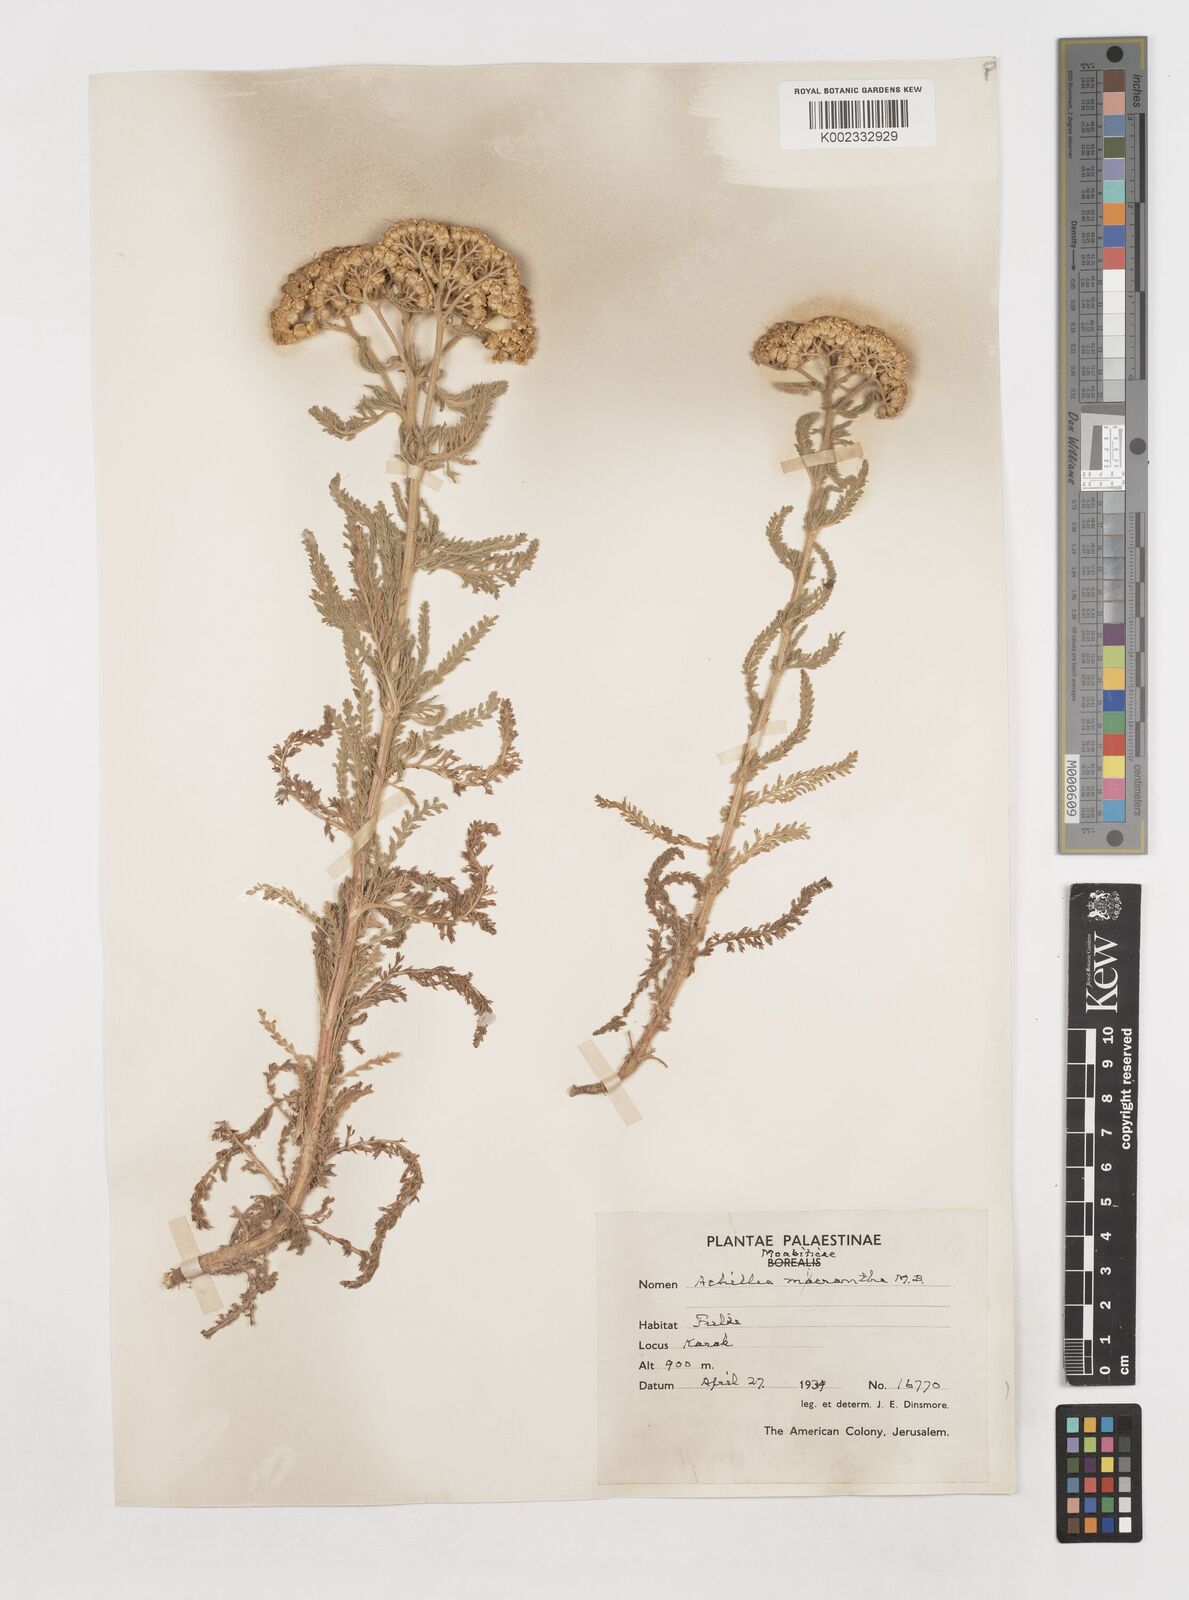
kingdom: Plantae
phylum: Tracheophyta
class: Magnoliopsida
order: Asterales
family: Asteraceae
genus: Achillea
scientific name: Achillea arabica
